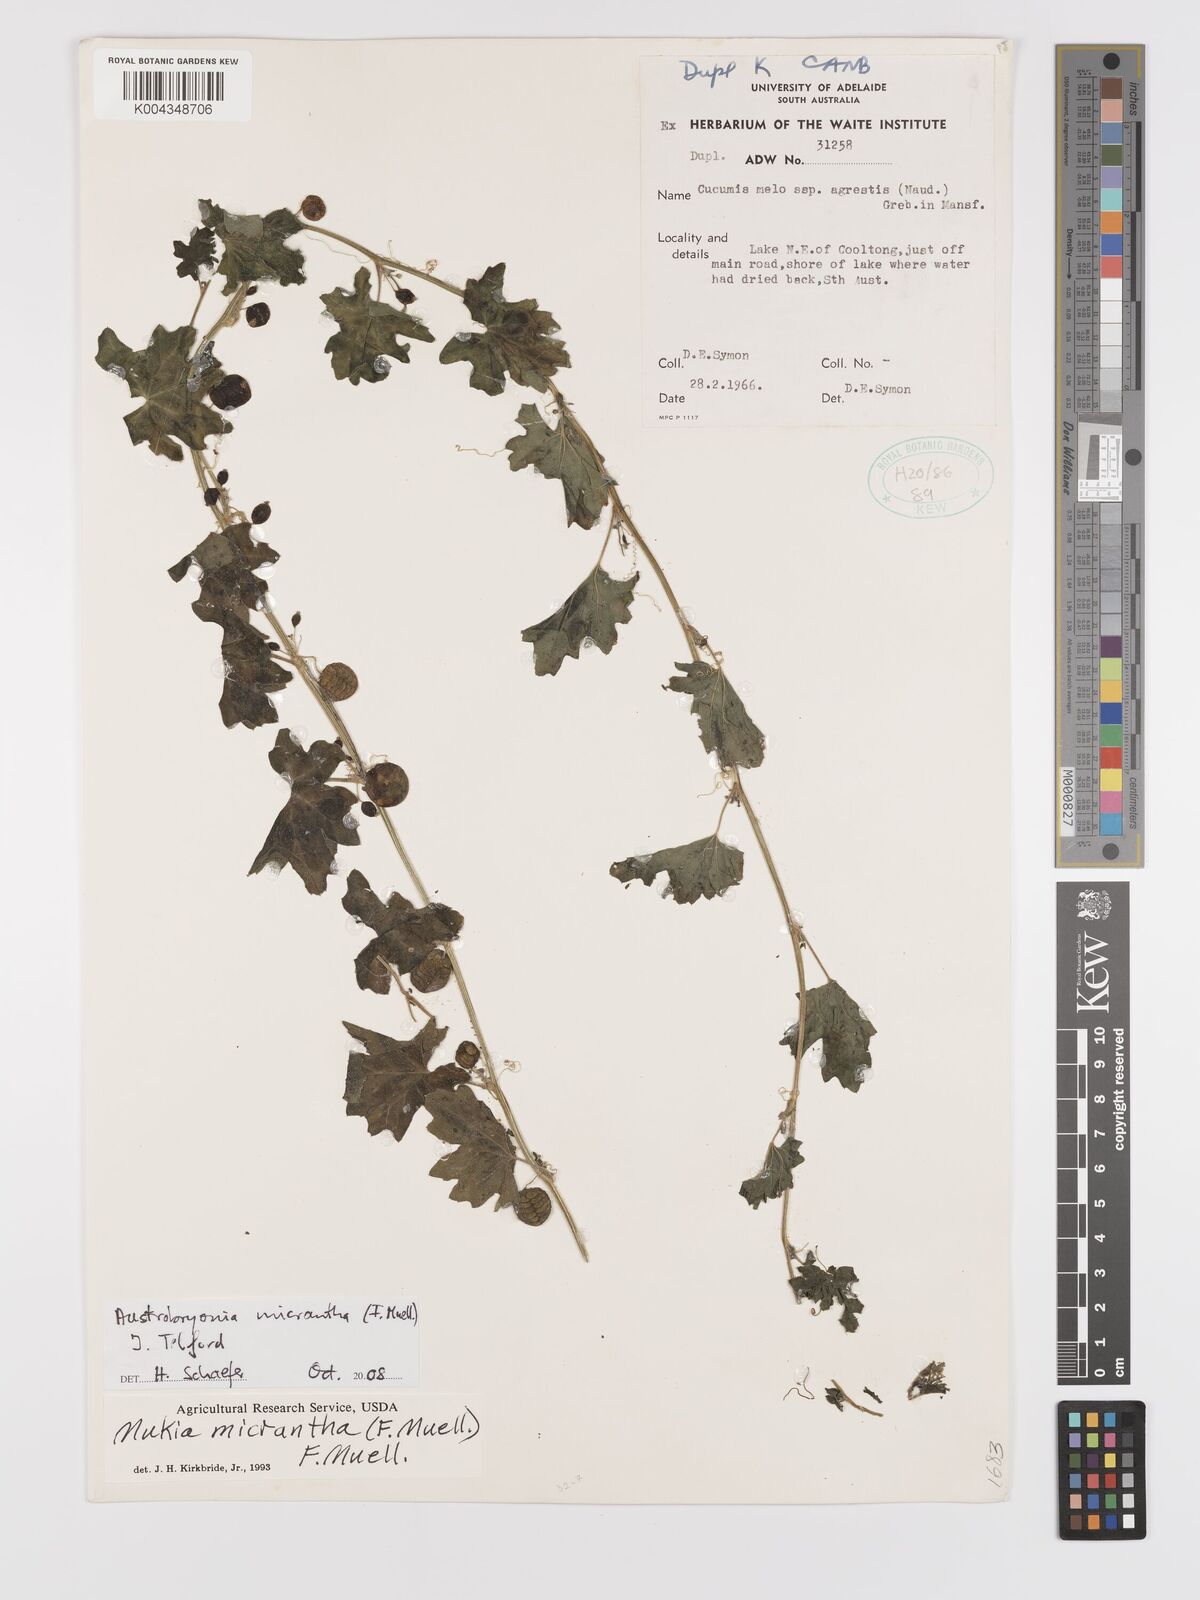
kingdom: Plantae
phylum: Tracheophyta
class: Magnoliopsida
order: Cucurbitales
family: Cucurbitaceae
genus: Austrobryonia
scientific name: Austrobryonia micrantha
